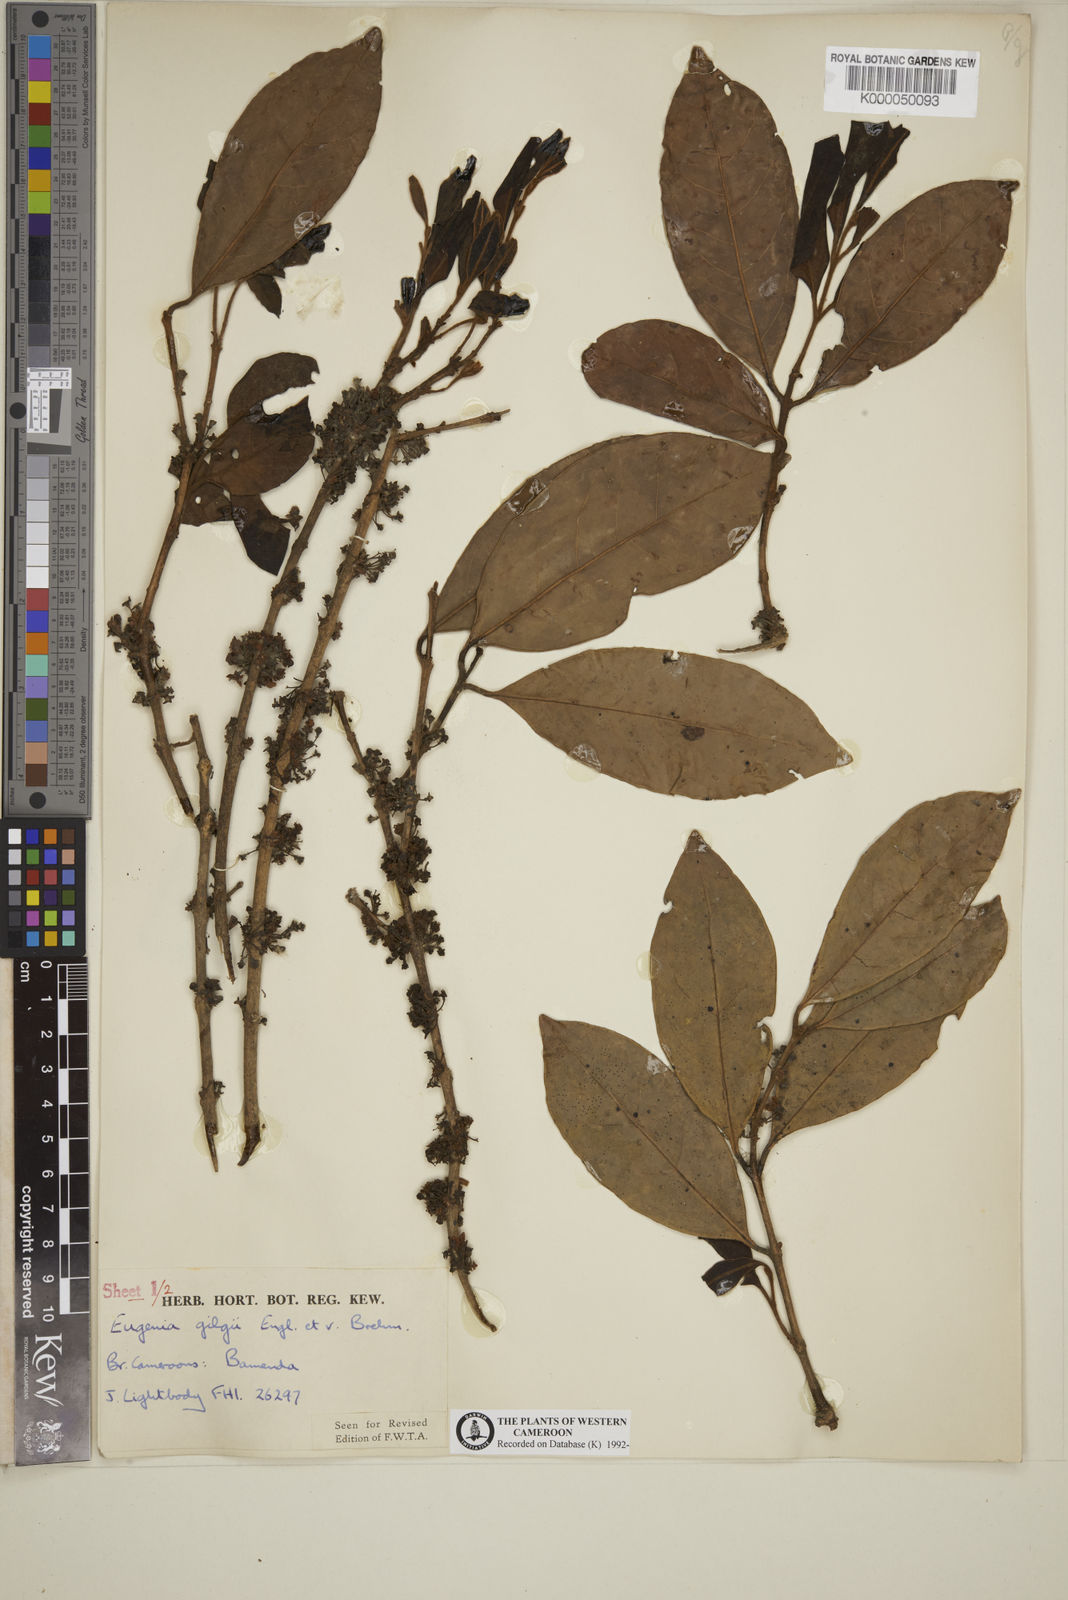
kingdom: Plantae
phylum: Tracheophyta
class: Magnoliopsida
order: Myrtales
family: Myrtaceae
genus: Eugenia
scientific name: Eugenia gilgii
